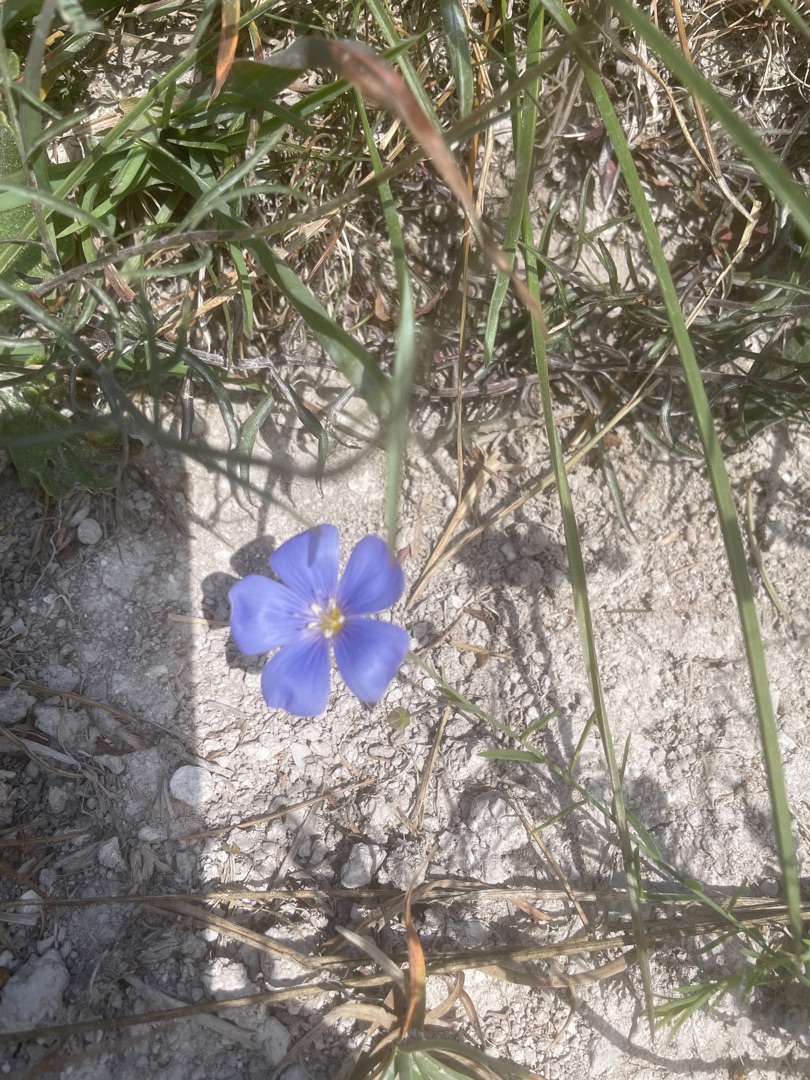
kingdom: Plantae
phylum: Tracheophyta
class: Magnoliopsida
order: Malpighiales
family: Linaceae
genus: Linum
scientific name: Linum austriacum
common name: Østrigsk hør
